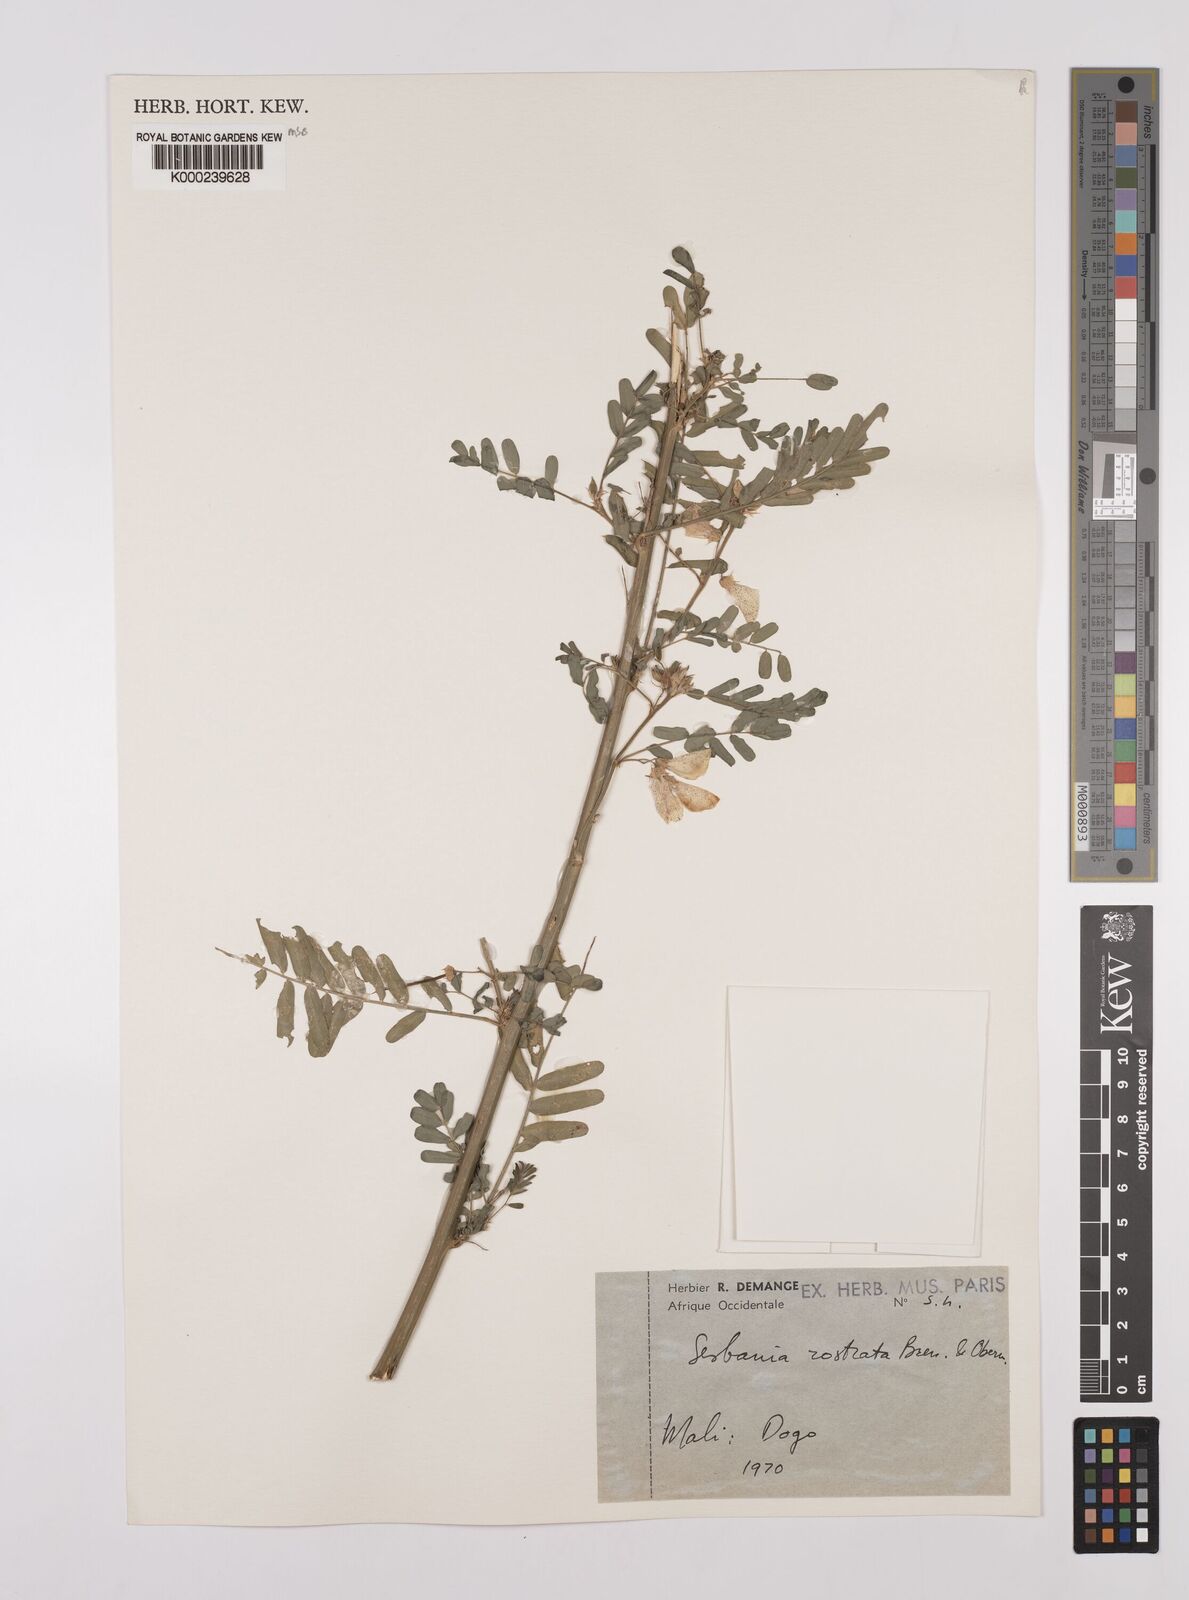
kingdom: Plantae
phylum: Tracheophyta
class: Magnoliopsida
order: Fabales
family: Fabaceae
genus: Sesbania
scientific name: Sesbania rostrata
